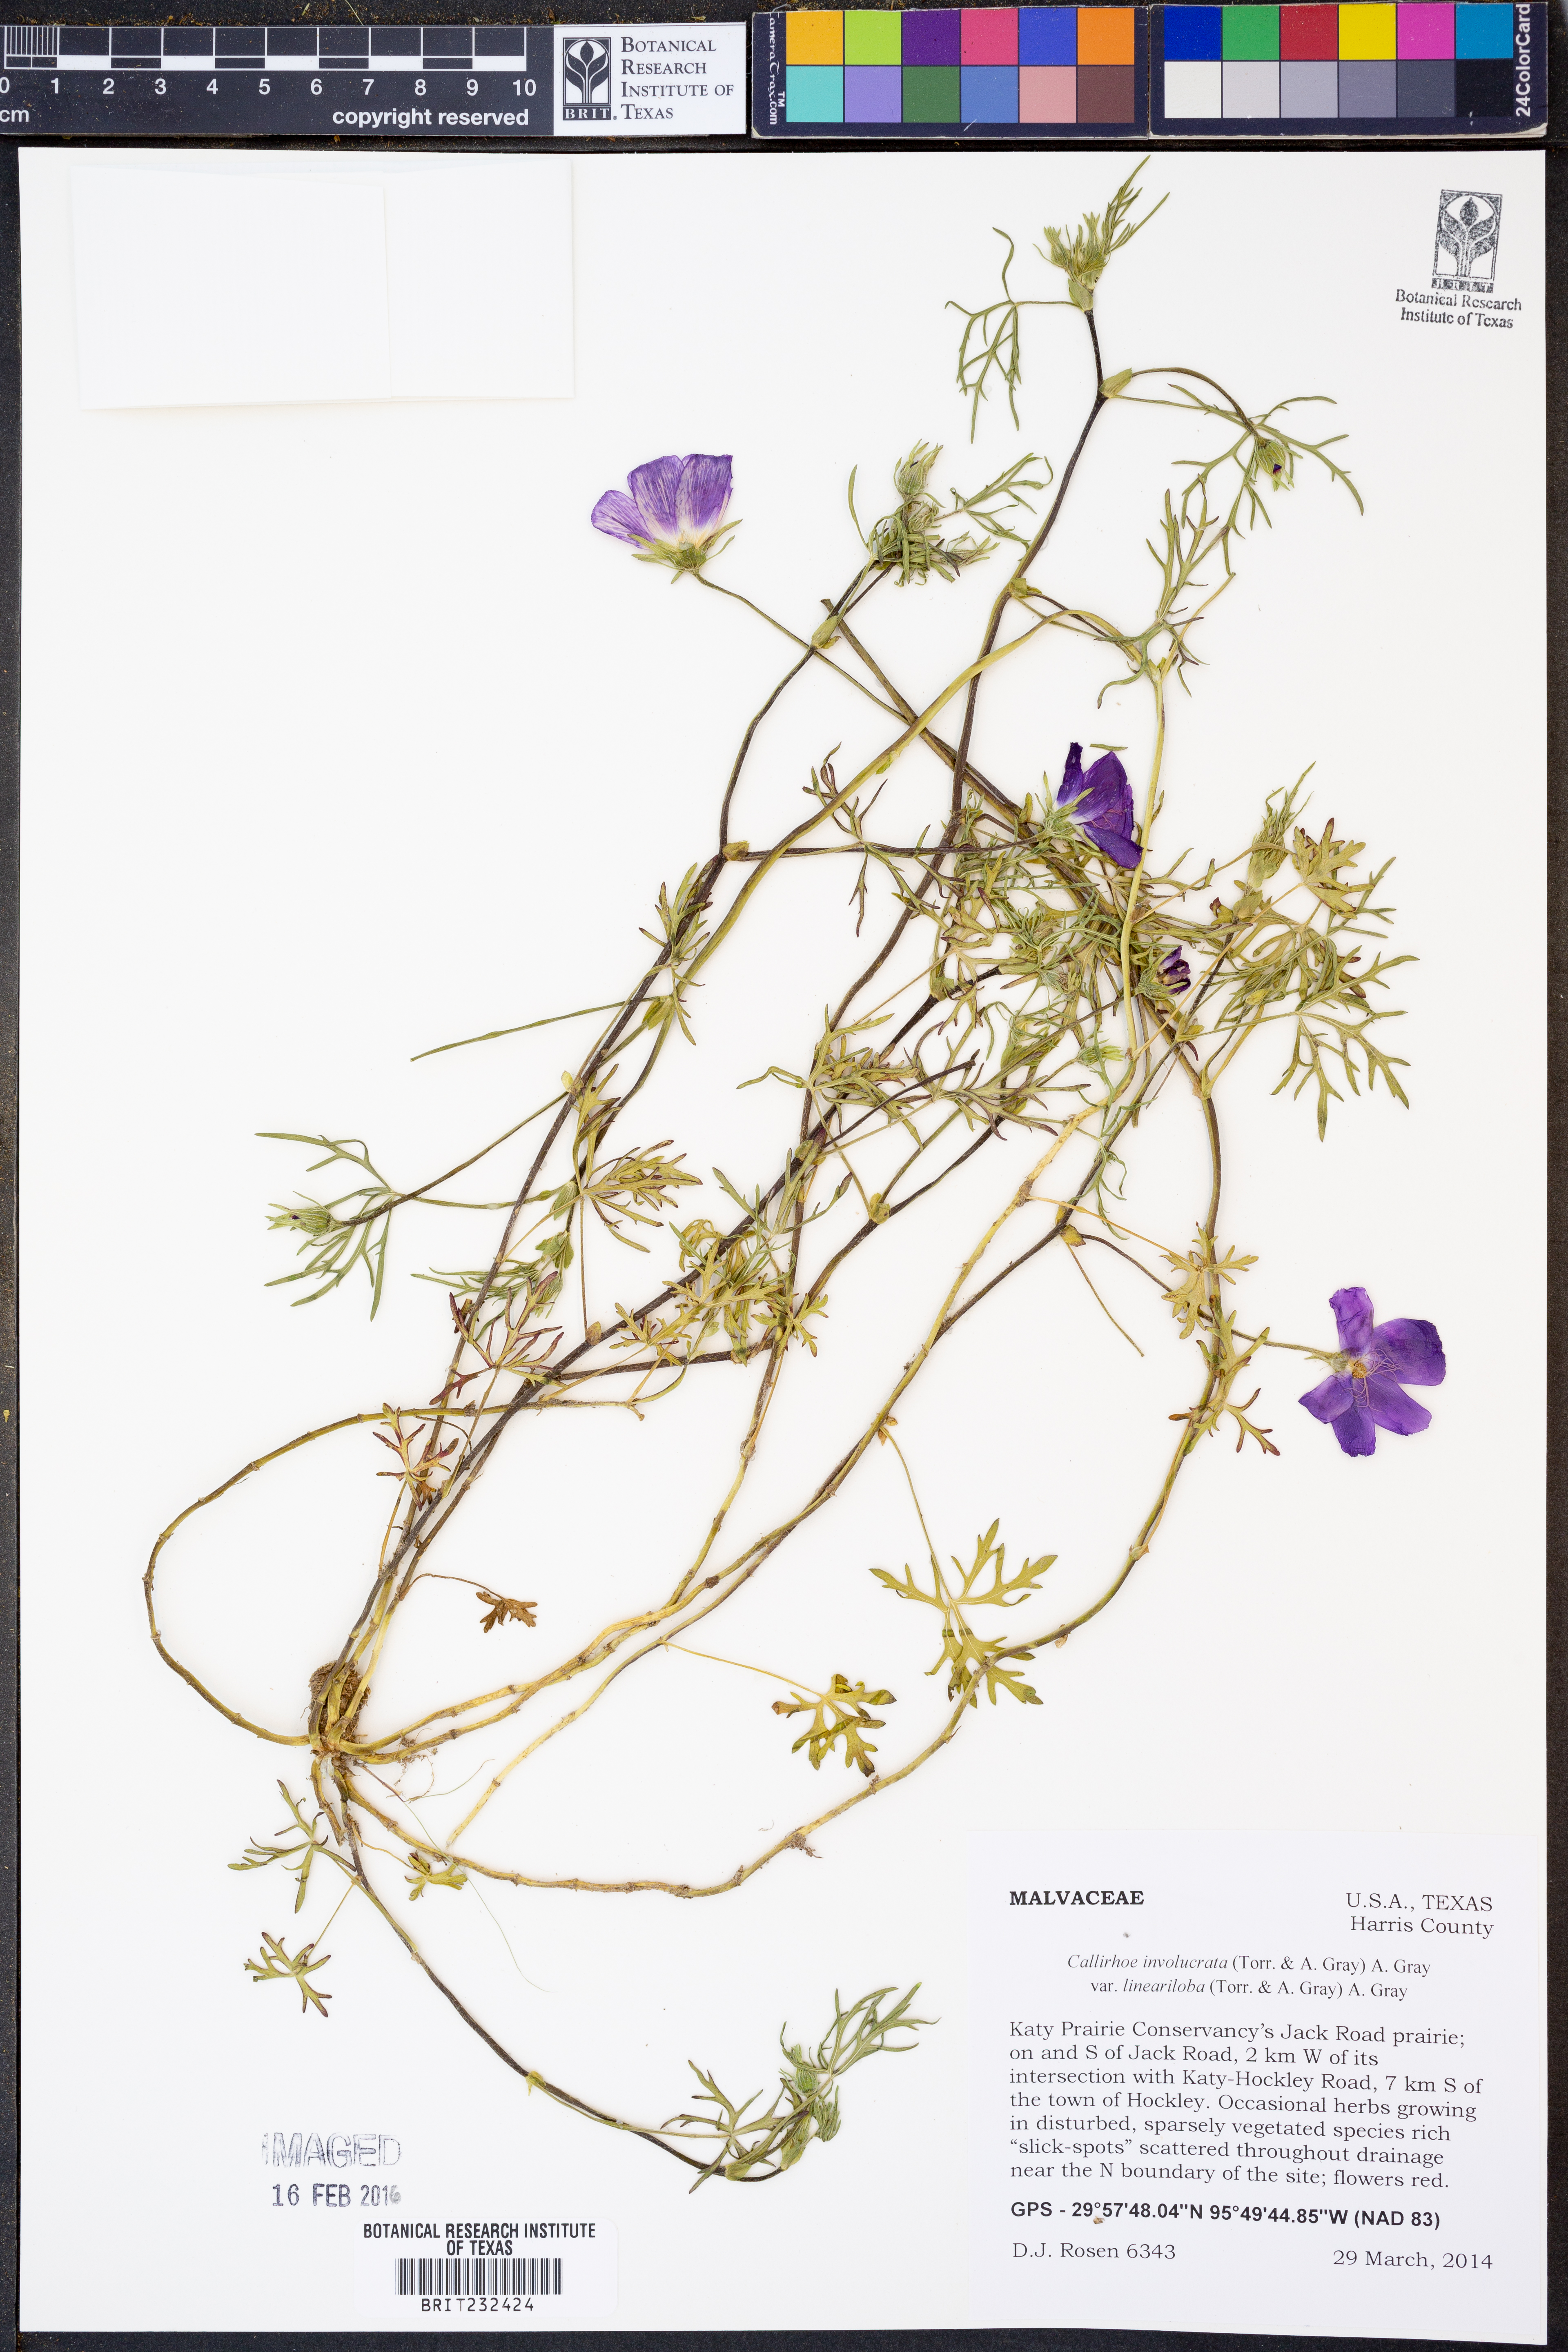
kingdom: Plantae
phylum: Tracheophyta
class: Magnoliopsida
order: Malvales
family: Malvaceae
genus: Callirhoe
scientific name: Callirhoe involucrata
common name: Purple poppy-mallow
